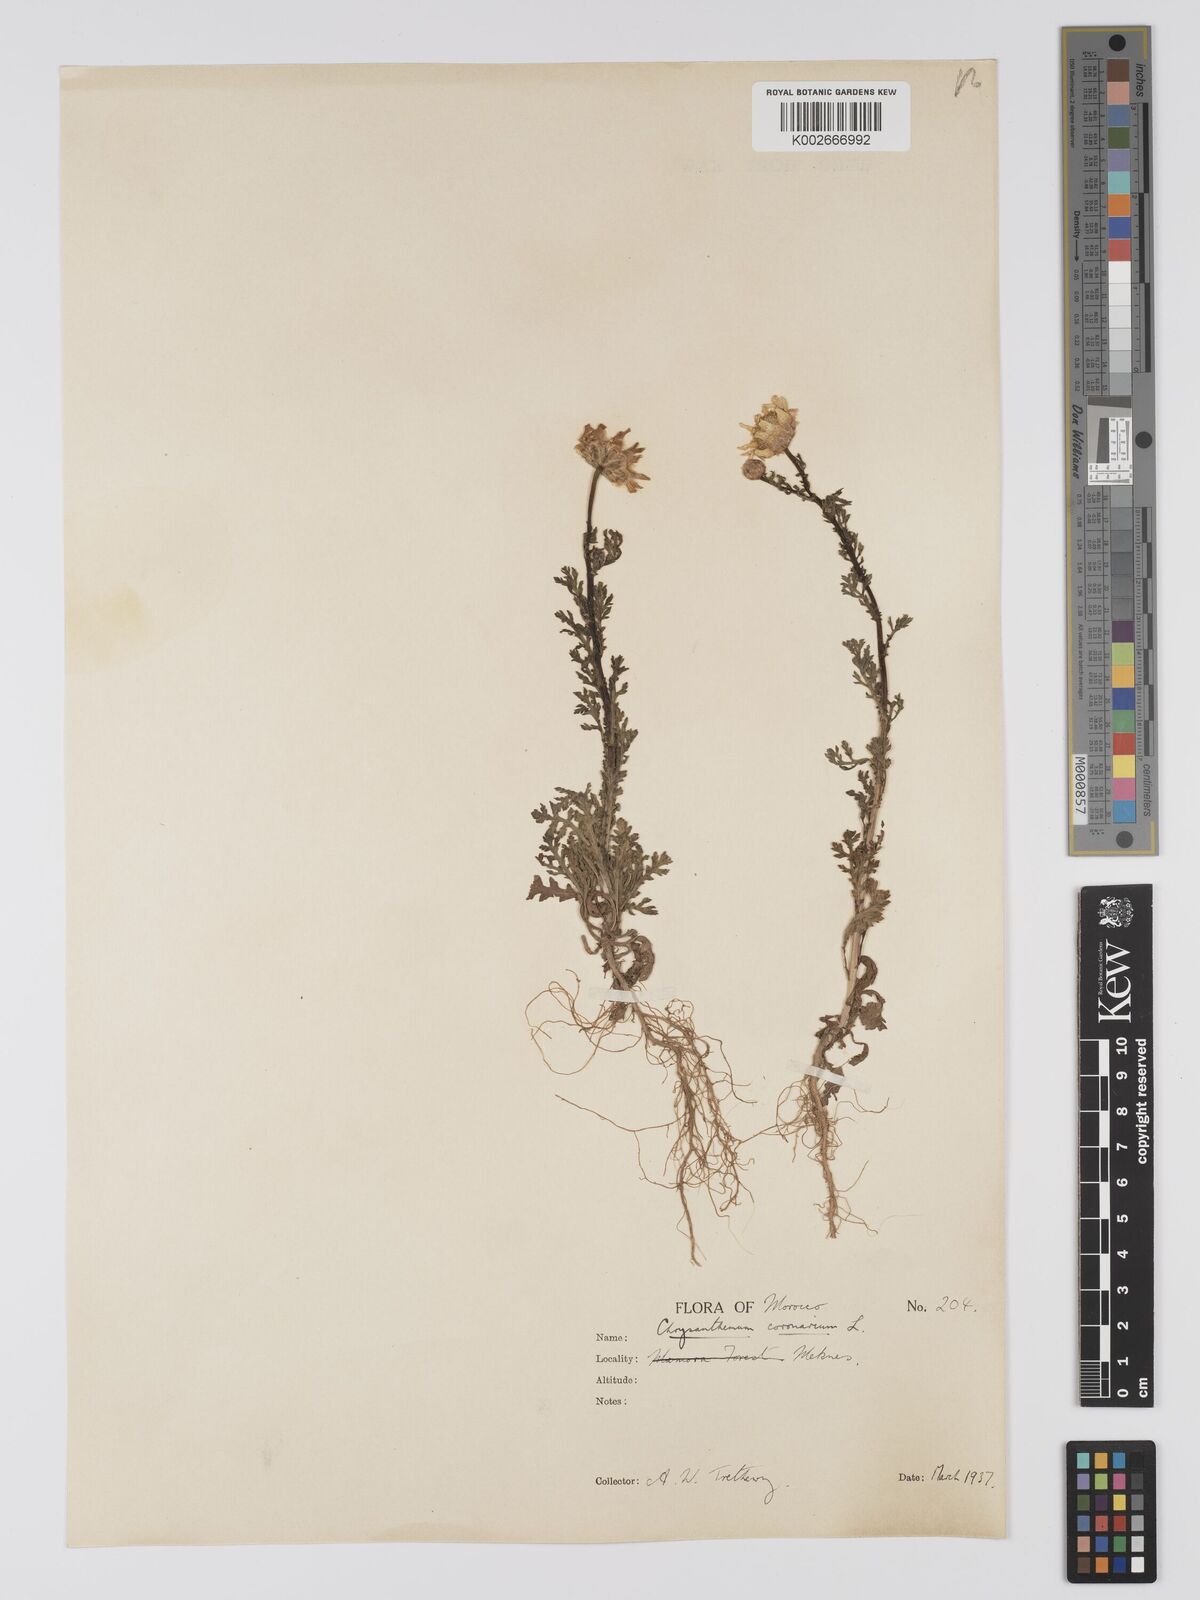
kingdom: Plantae
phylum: Tracheophyta
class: Magnoliopsida
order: Asterales
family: Asteraceae
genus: Glebionis
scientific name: Glebionis coronaria
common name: Crowndaisy
